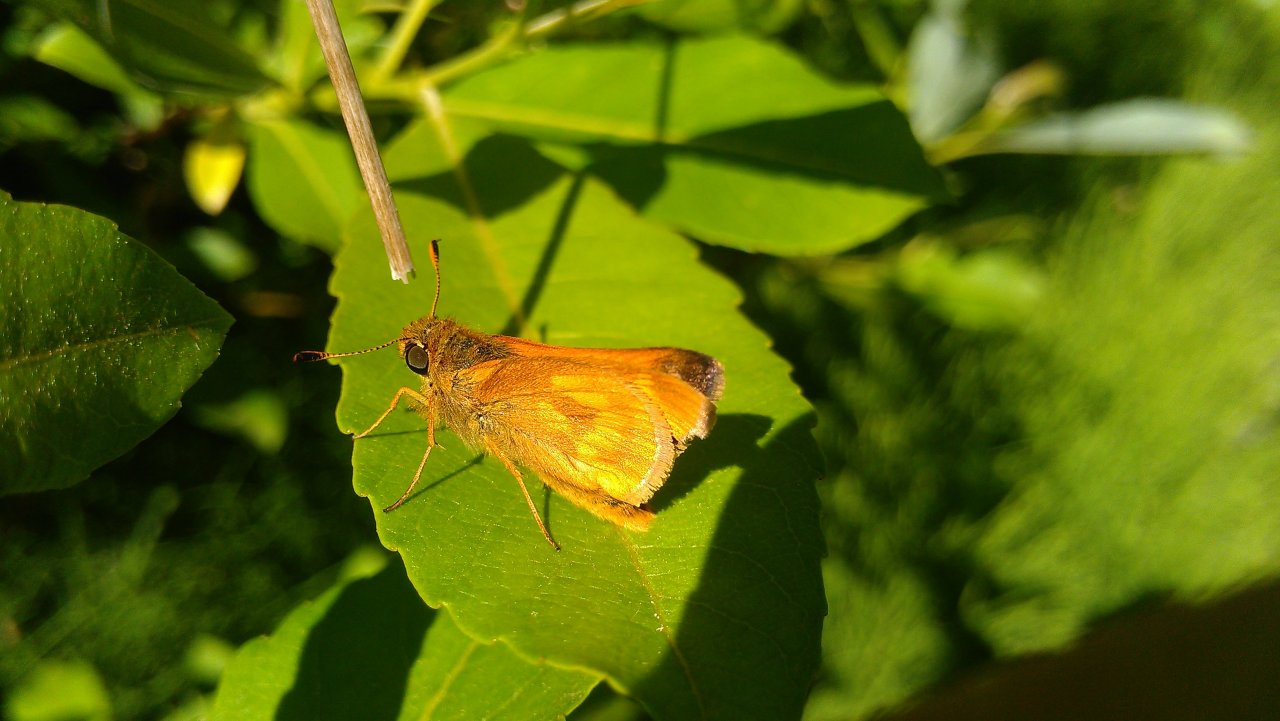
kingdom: Animalia
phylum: Arthropoda
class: Insecta
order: Lepidoptera
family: Hesperiidae
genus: Polites
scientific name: Polites
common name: Long Dash Skipper
